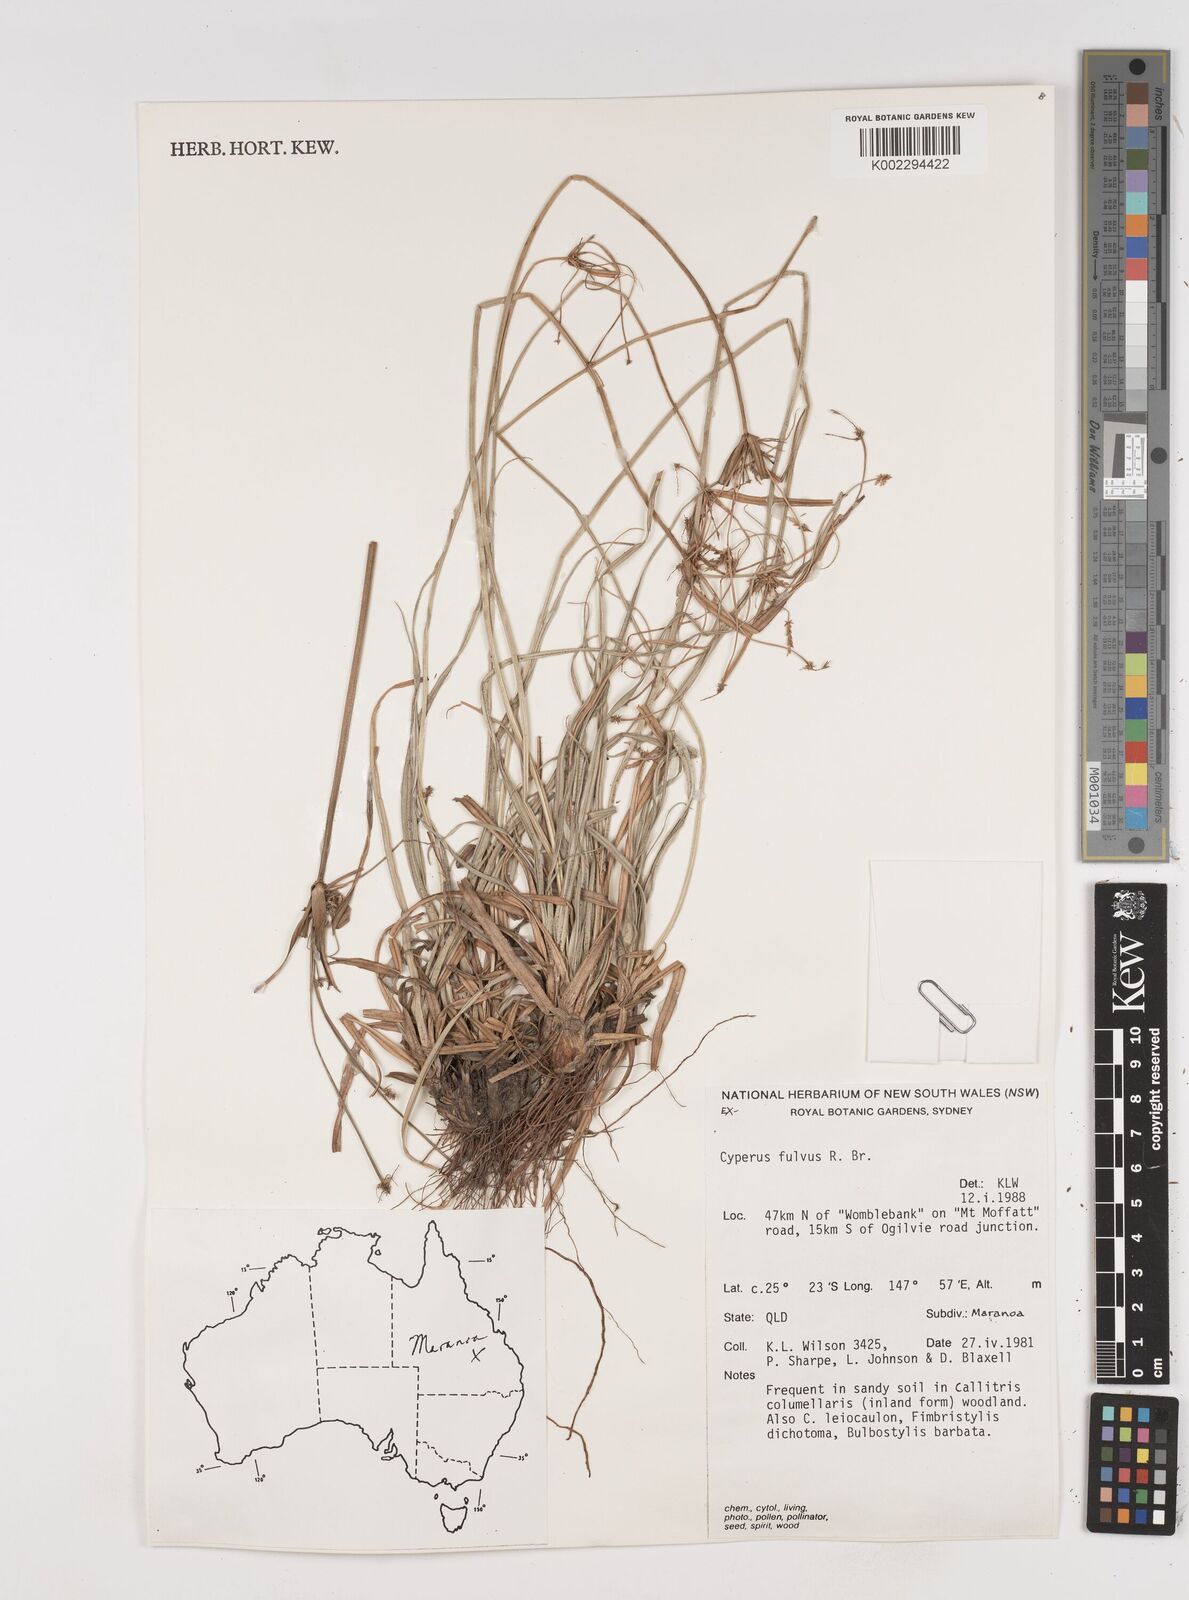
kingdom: Plantae
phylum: Tracheophyta
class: Liliopsida
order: Poales
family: Cyperaceae
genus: Cyperus
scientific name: Cyperus fulvus
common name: Sticky sedge
